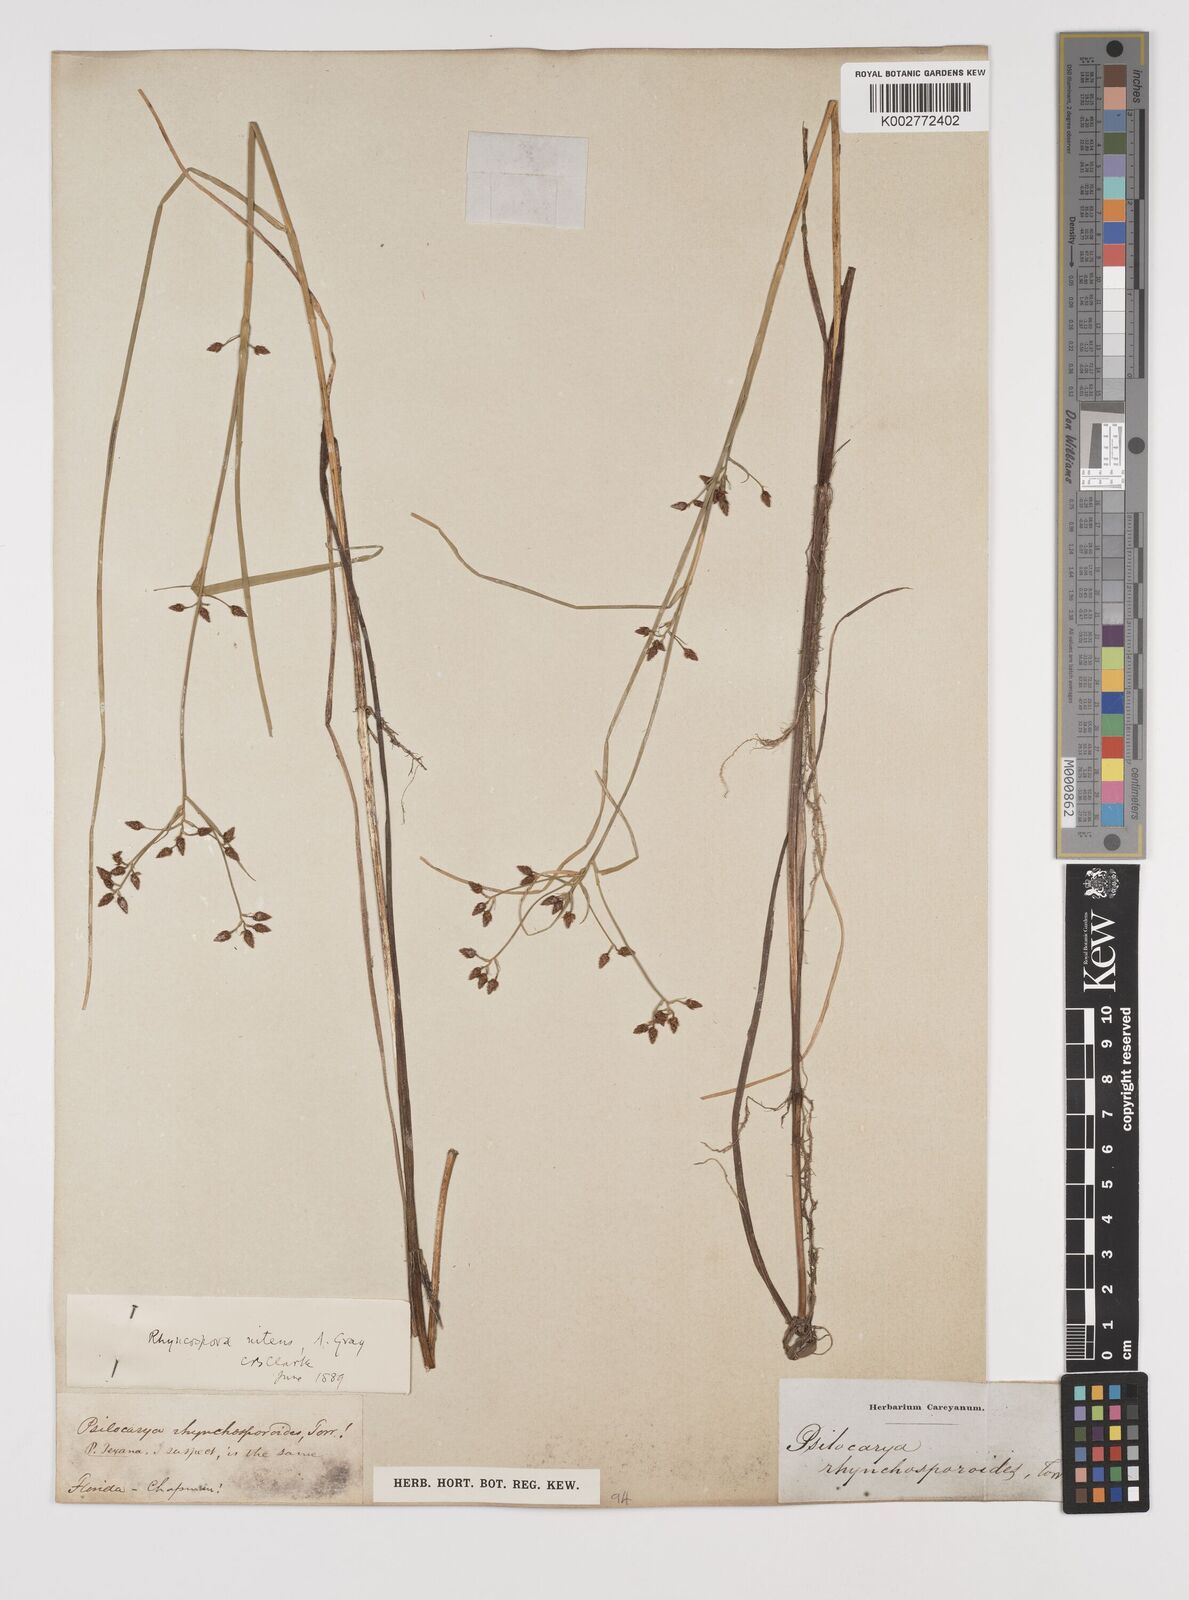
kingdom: Plantae
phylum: Tracheophyta
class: Liliopsida
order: Poales
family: Cyperaceae
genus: Rhynchospora
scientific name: Rhynchospora nitens
